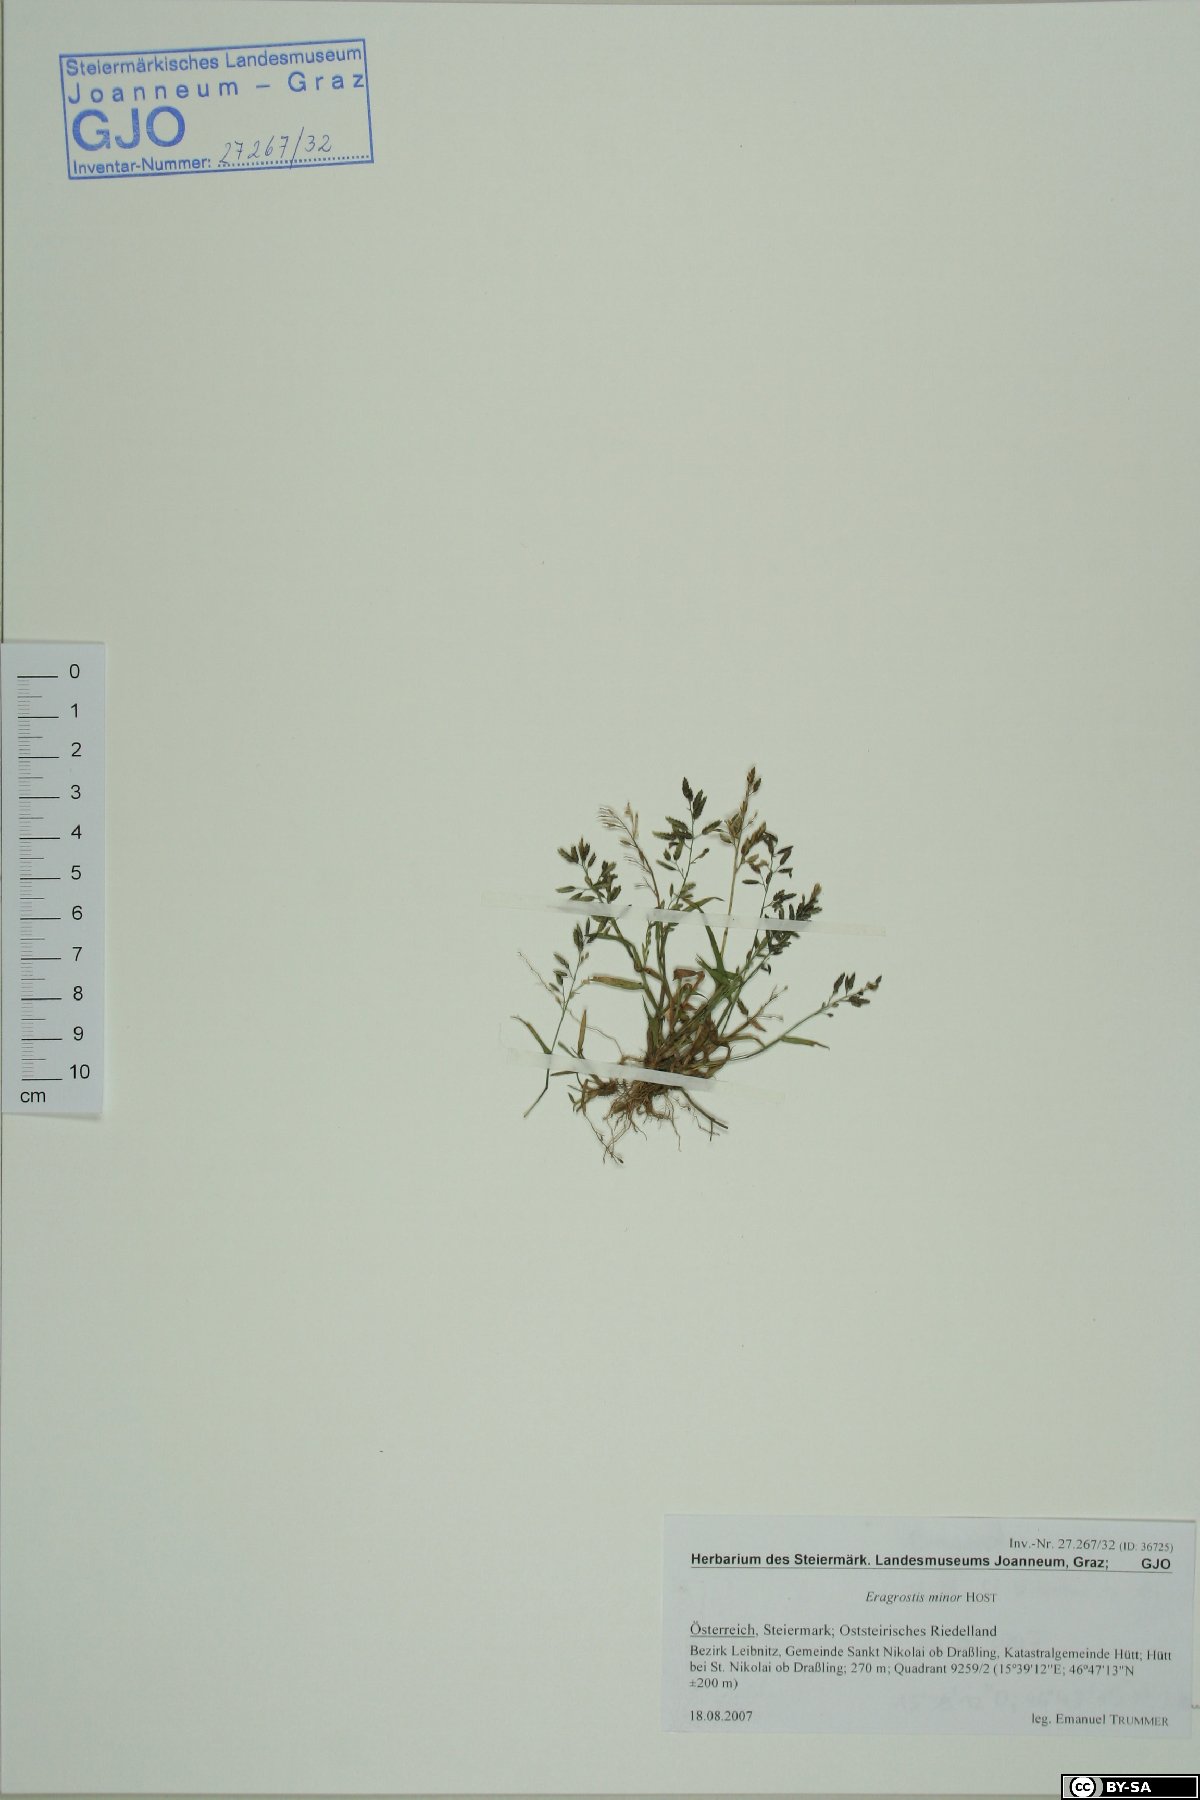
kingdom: Plantae
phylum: Tracheophyta
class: Liliopsida
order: Poales
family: Poaceae
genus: Eragrostis
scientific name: Eragrostis minor
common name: Small love-grass
